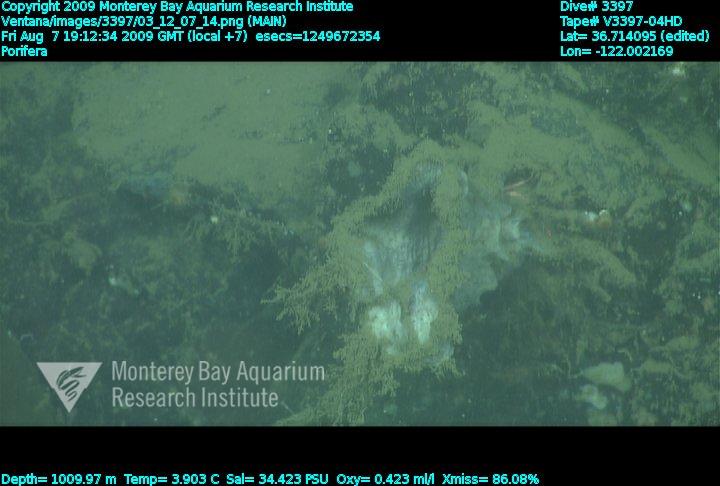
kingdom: Animalia
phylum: Porifera
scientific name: Porifera
